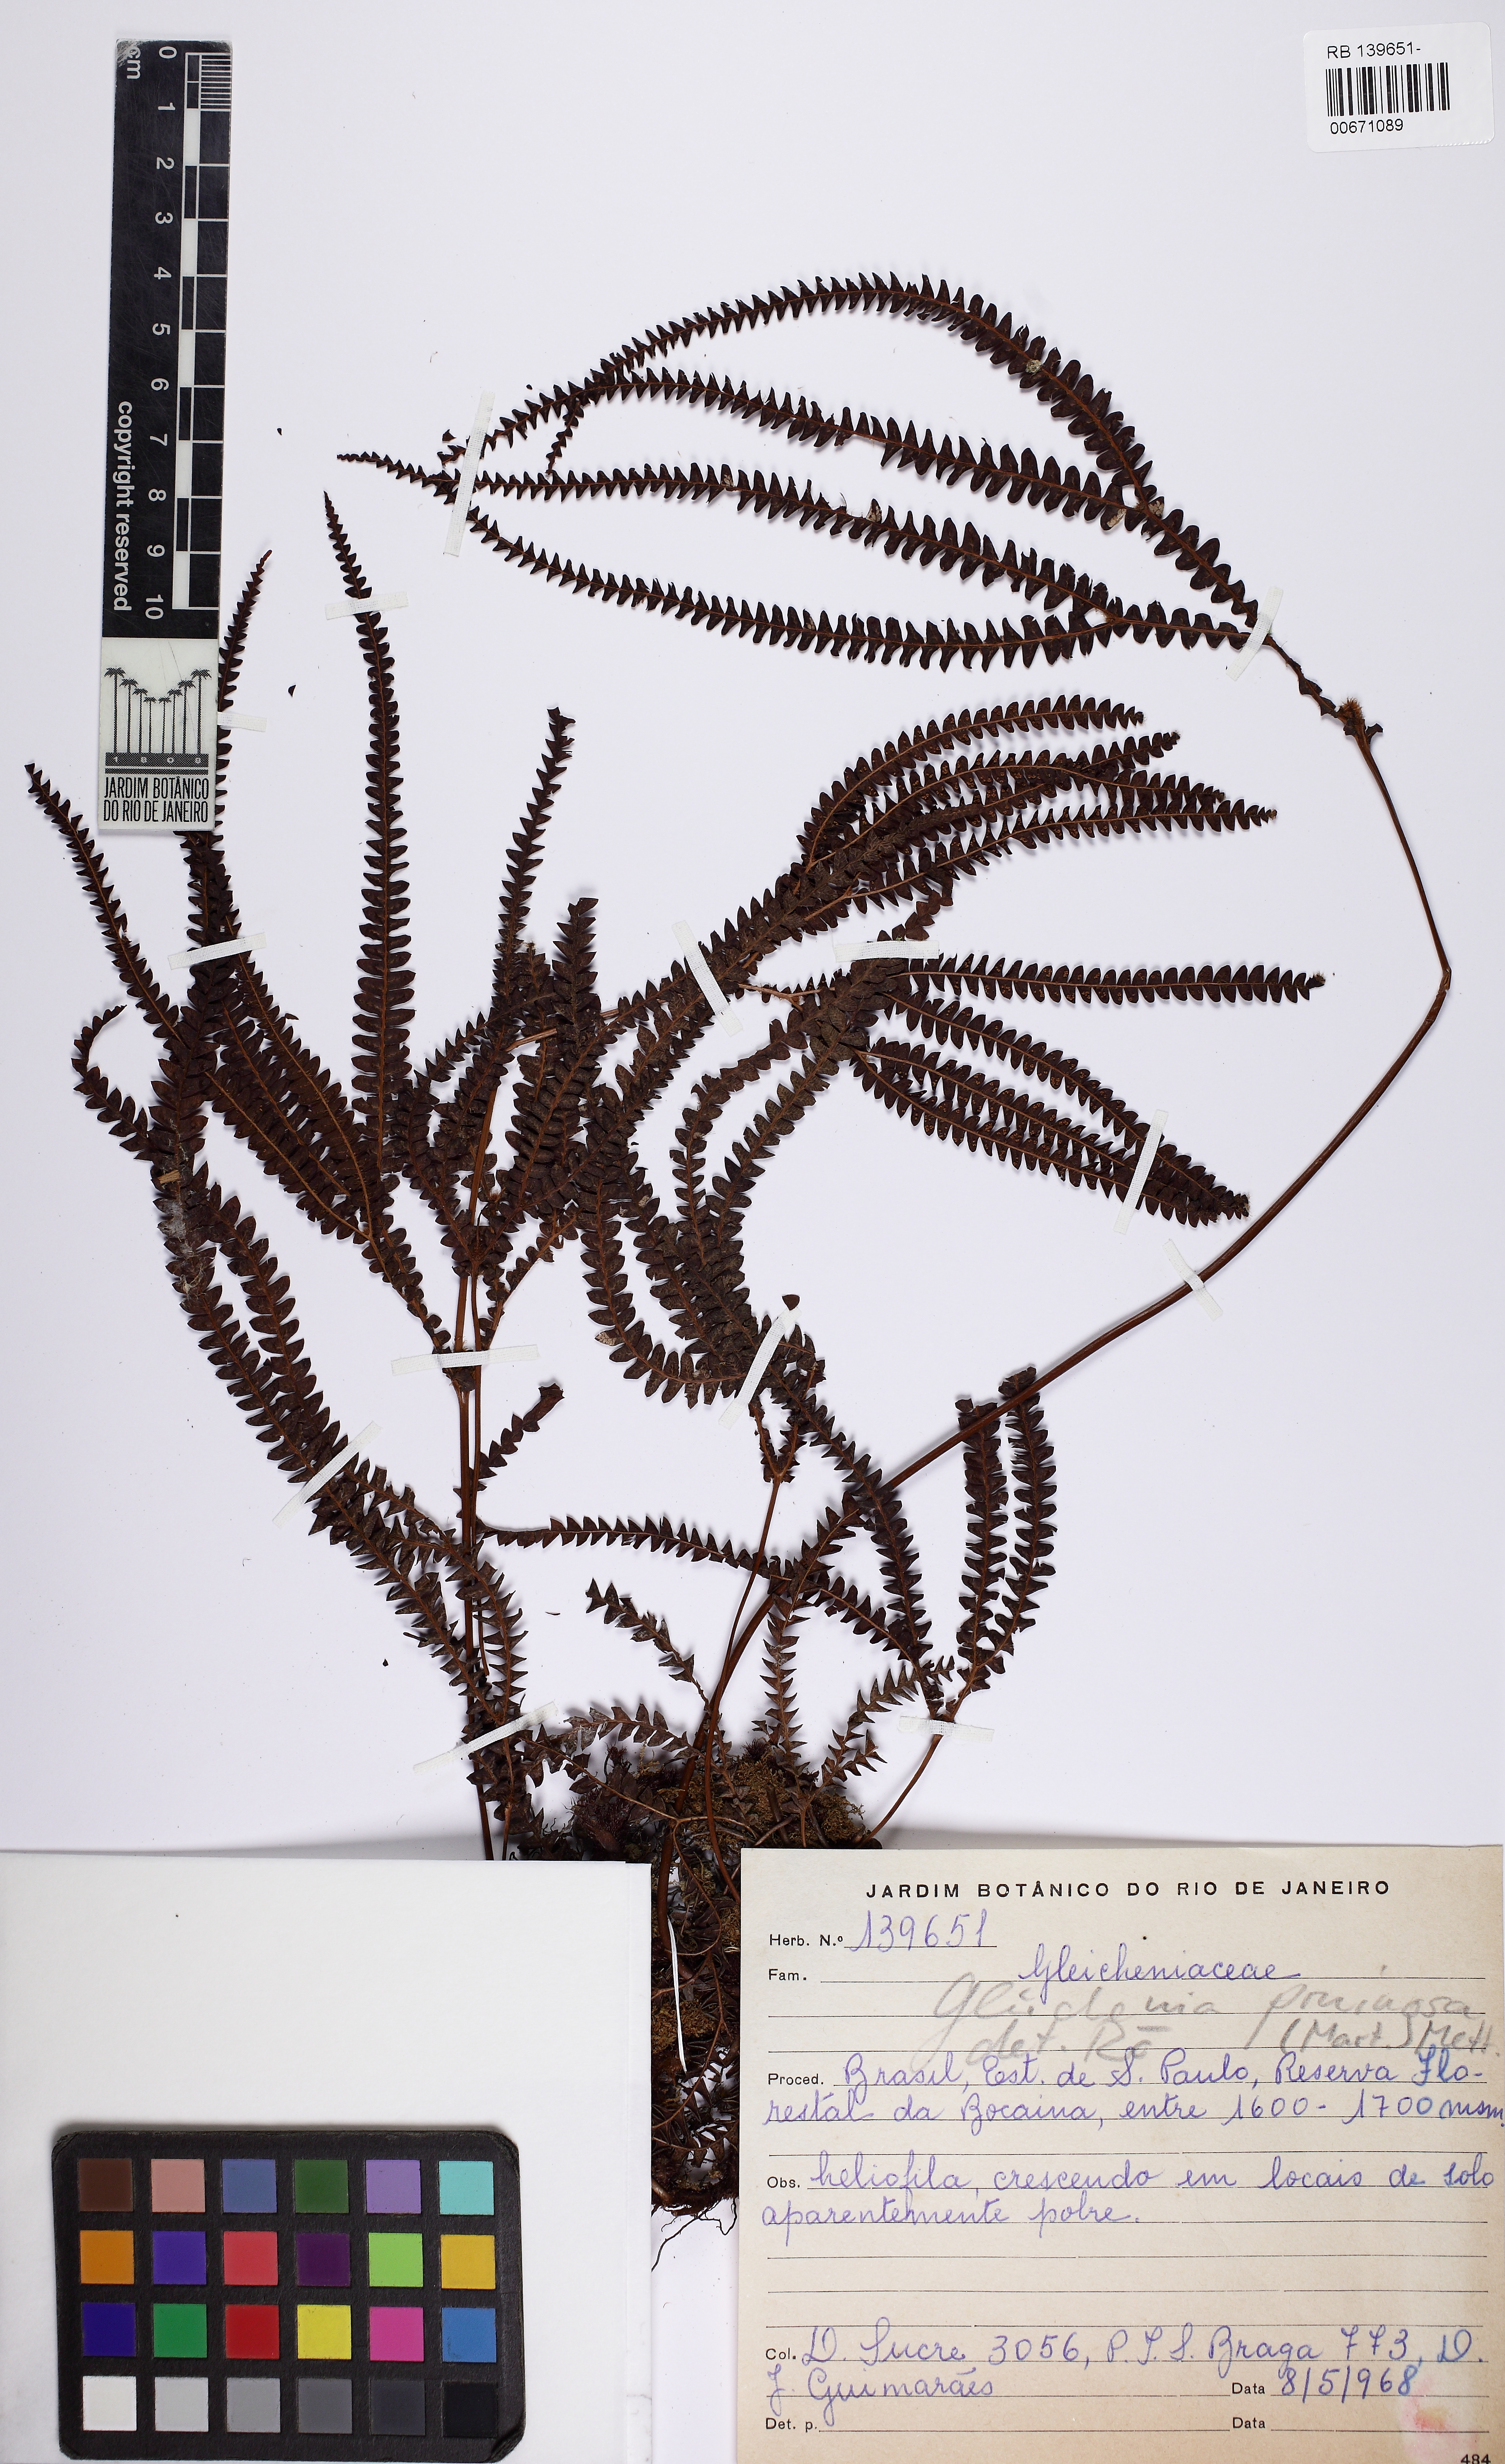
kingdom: Plantae
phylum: Tracheophyta
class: Polypodiopsida
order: Gleicheniales
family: Gleicheniaceae
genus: Sticherus
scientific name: Sticherus pruinosus
